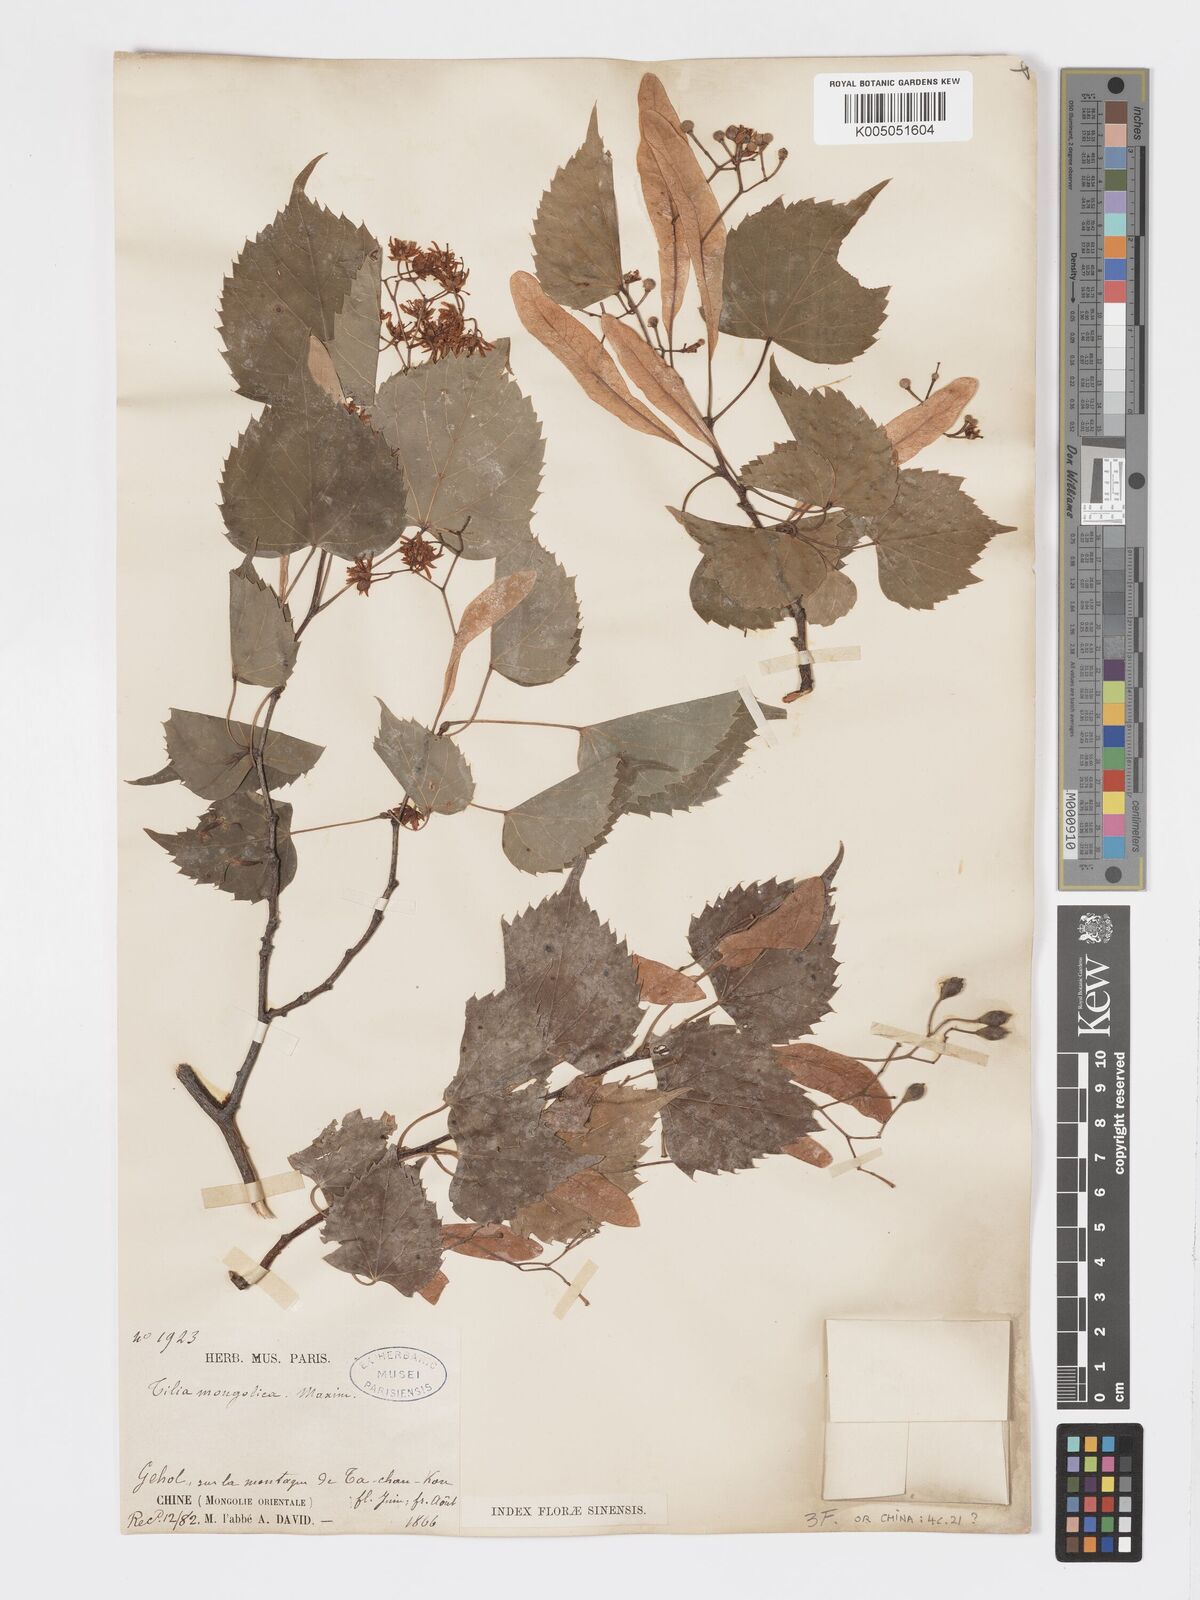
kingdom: Plantae
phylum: Tracheophyta
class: Magnoliopsida
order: Malvales
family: Malvaceae
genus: Tilia
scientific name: Tilia mongolica
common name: Mongolian lime
